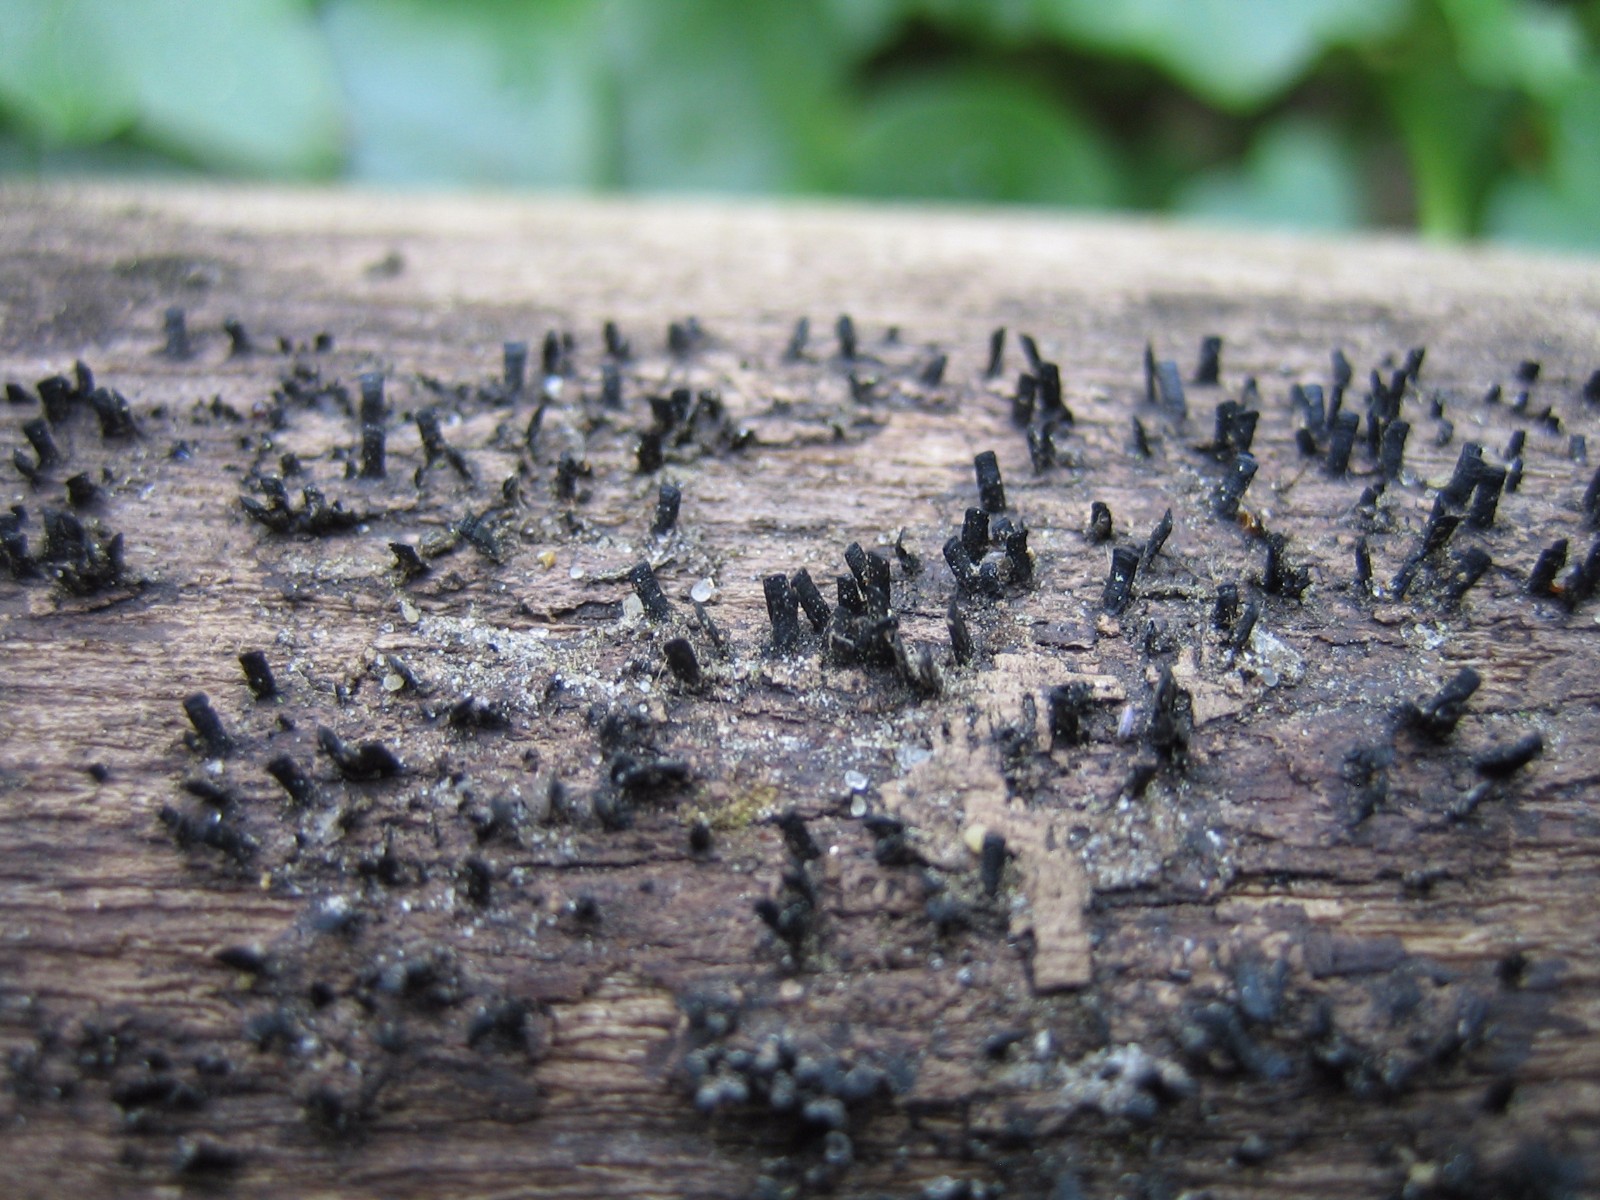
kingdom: Fungi
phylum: Ascomycota
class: Eurotiomycetes
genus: Glyphium
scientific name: Glyphium elatum
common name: kuløkse
